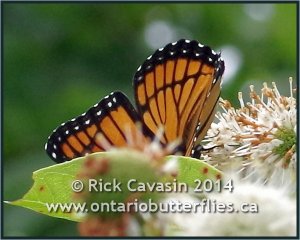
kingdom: Animalia
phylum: Arthropoda
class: Insecta
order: Lepidoptera
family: Nymphalidae
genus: Limenitis
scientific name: Limenitis archippus
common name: Viceroy
